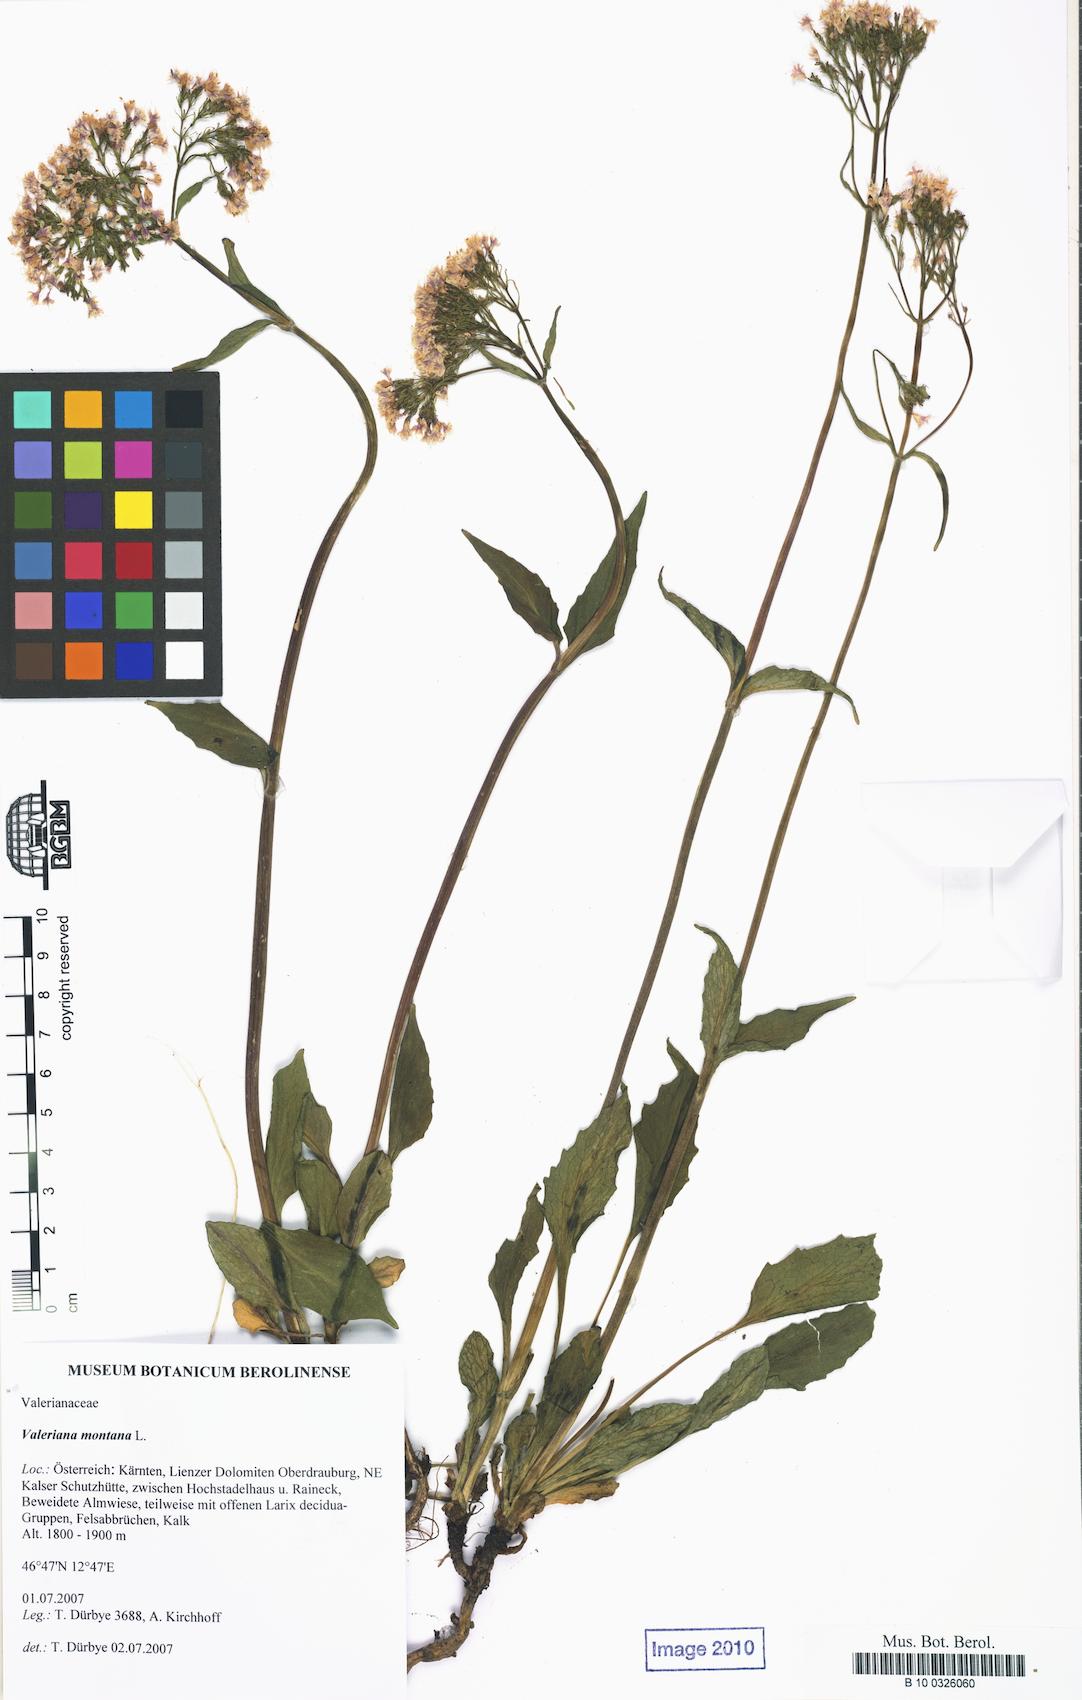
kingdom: Plantae
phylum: Tracheophyta
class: Magnoliopsida
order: Dipsacales
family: Caprifoliaceae
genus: Valeriana
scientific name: Valeriana montana
